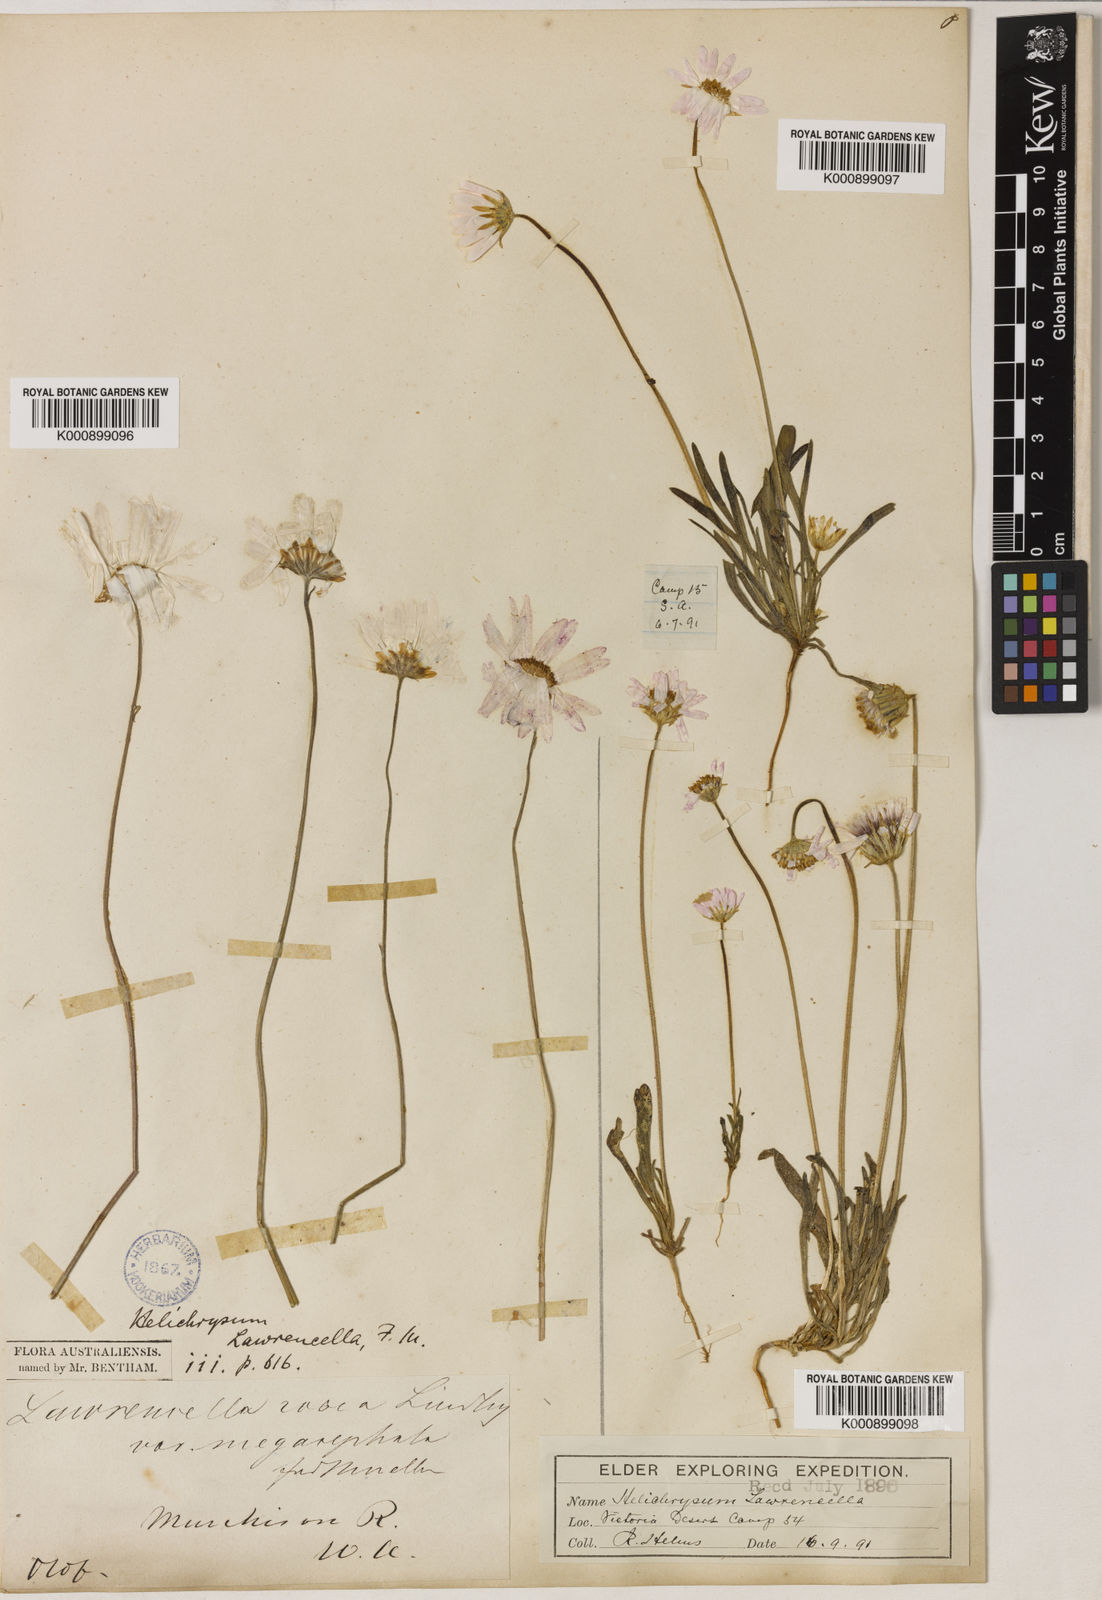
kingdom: Plantae
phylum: Tracheophyta
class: Magnoliopsida
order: Asterales
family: Asteraceae
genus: Lawrencella
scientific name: Lawrencella davenportii
